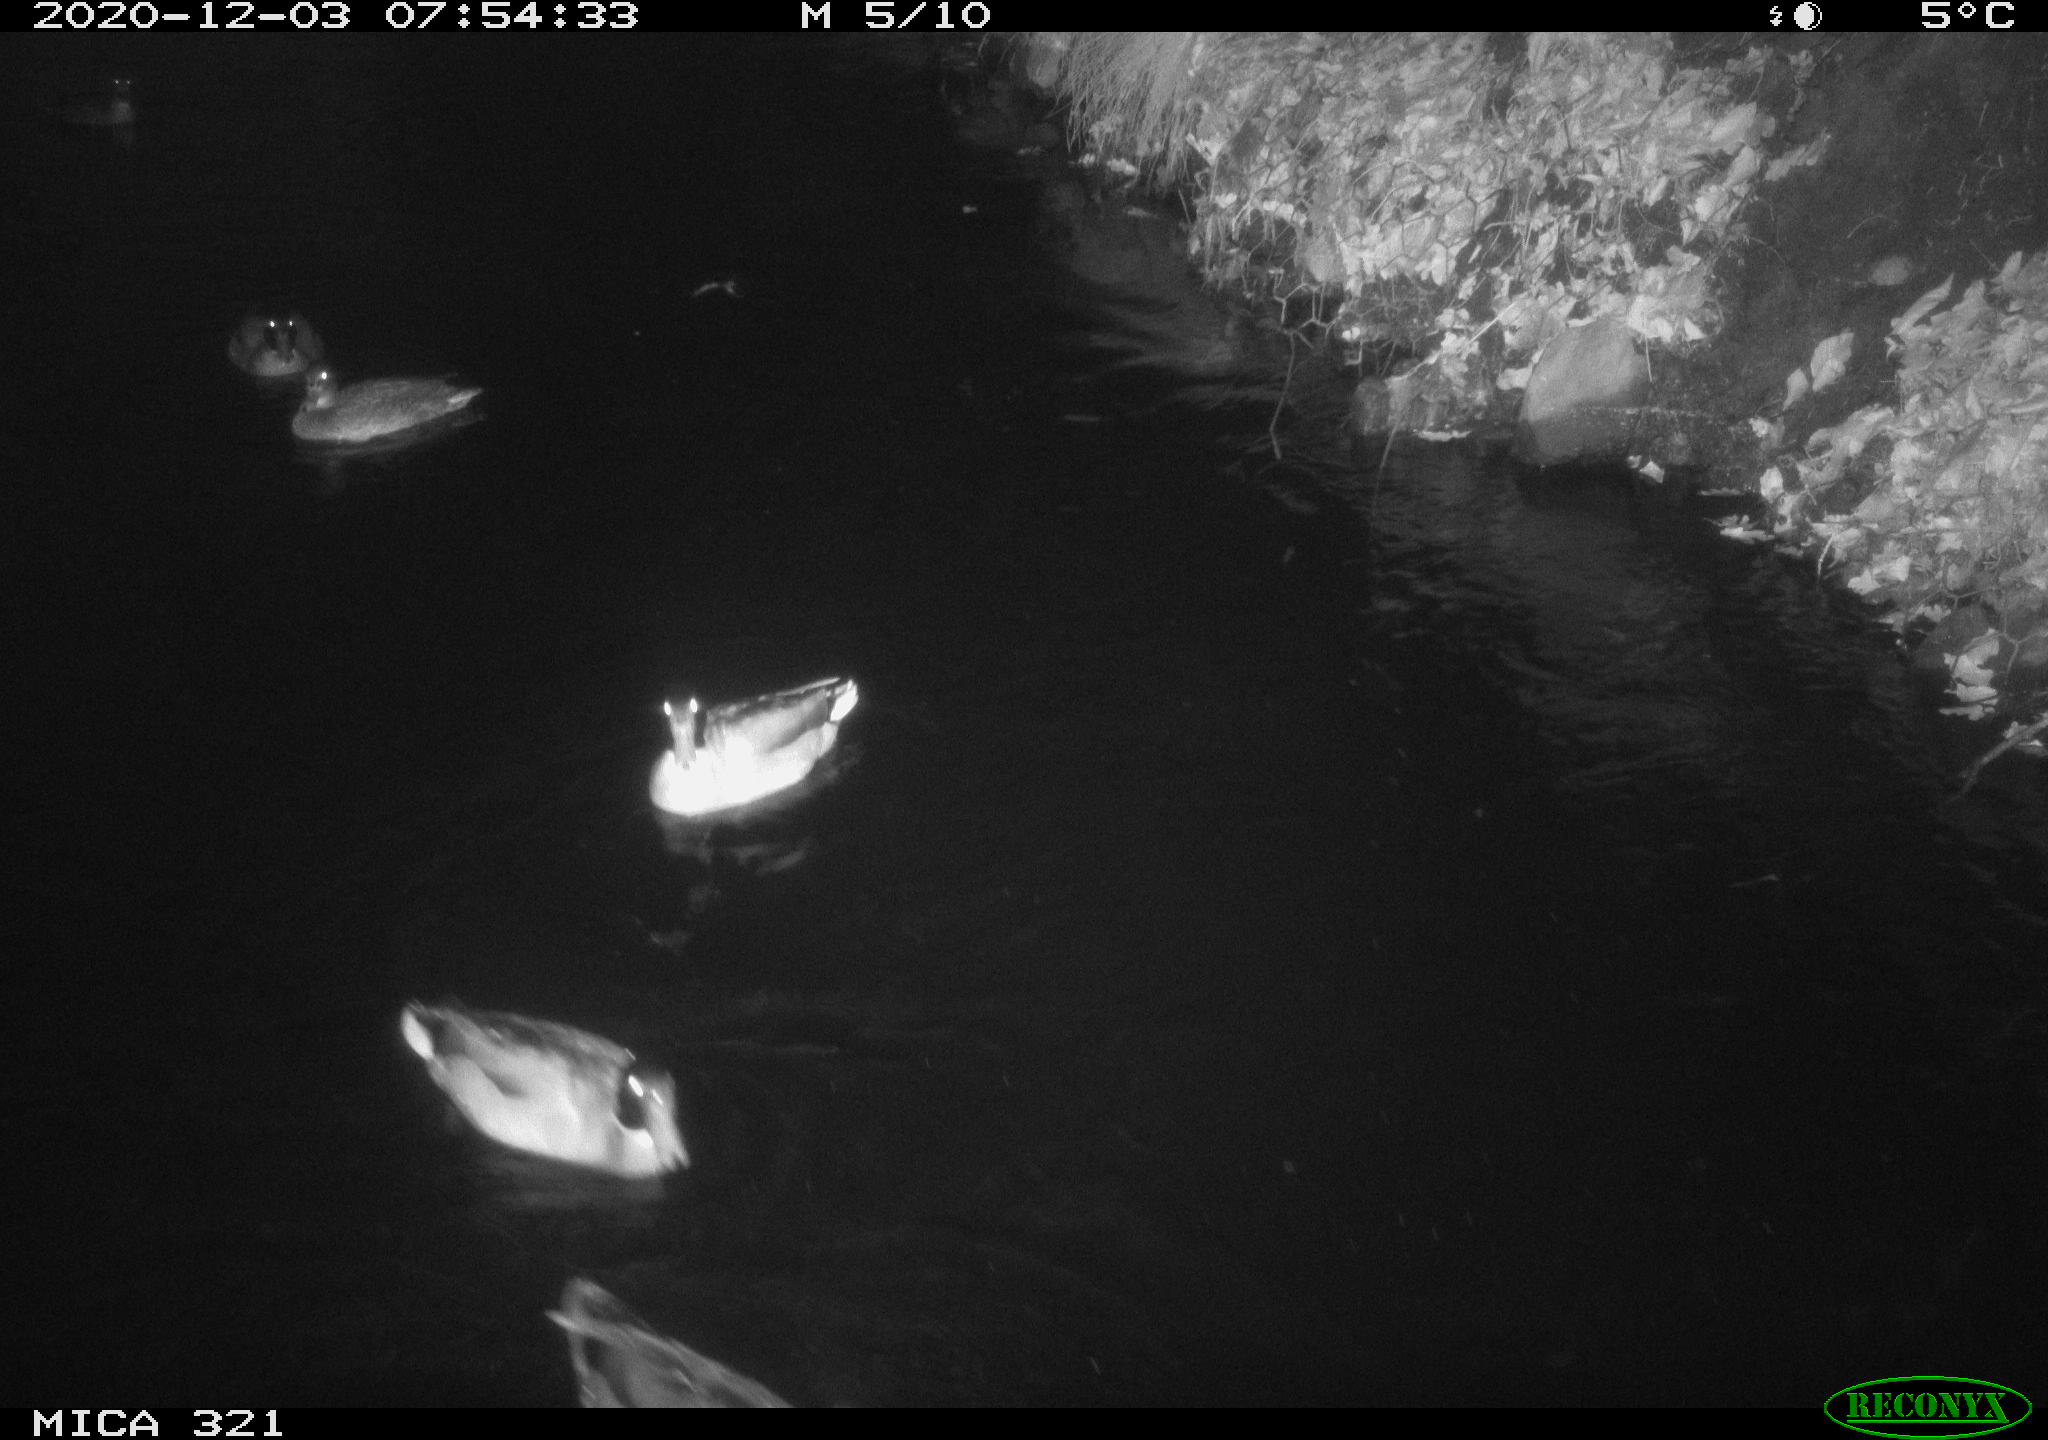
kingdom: Animalia
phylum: Chordata
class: Aves
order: Anseriformes
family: Anatidae
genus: Anas
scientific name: Anas platyrhynchos
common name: Mallard
